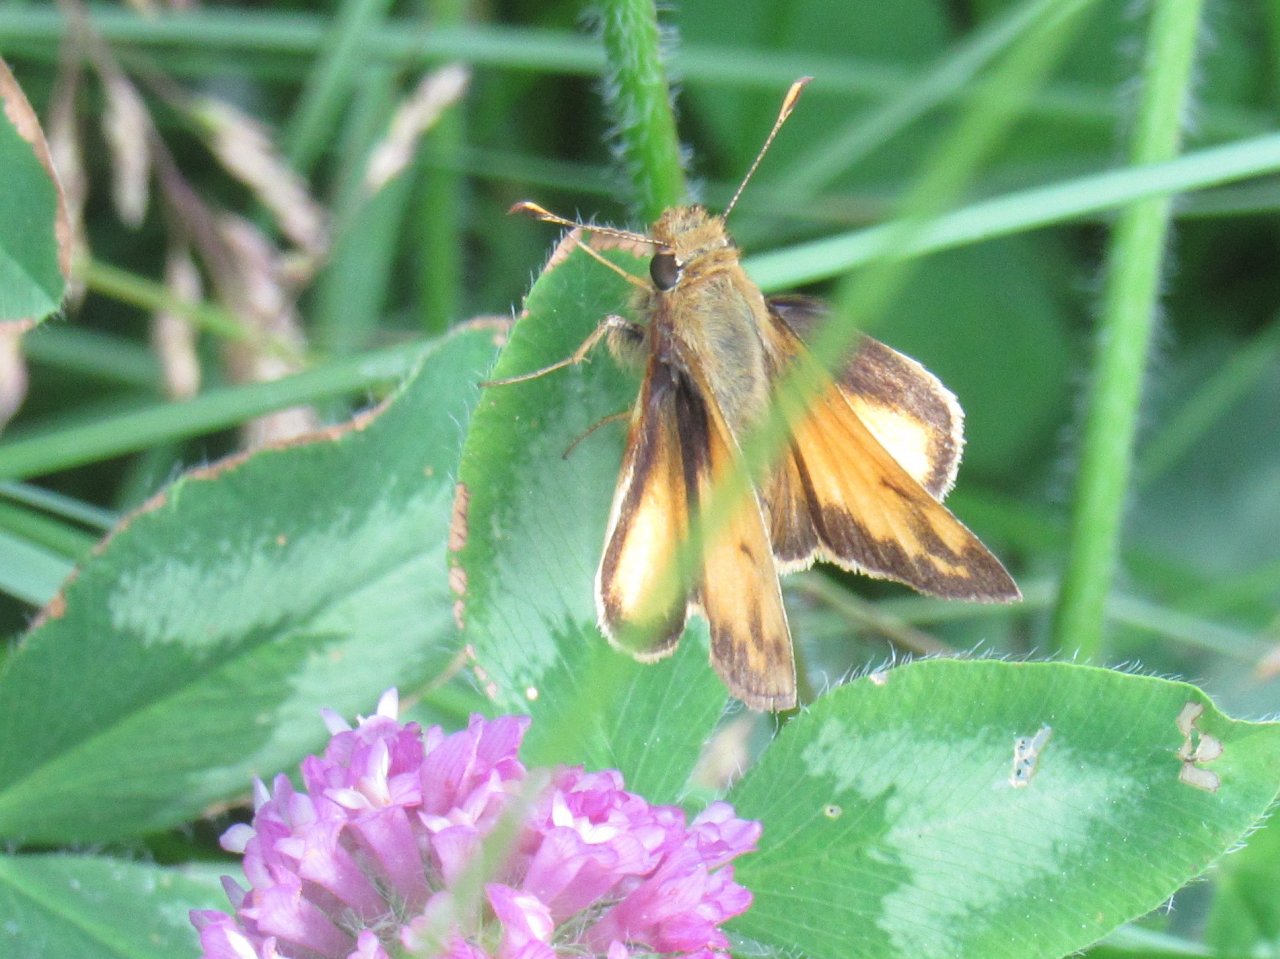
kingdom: Animalia
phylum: Arthropoda
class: Insecta
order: Lepidoptera
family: Hesperiidae
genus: Lon
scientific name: Lon zabulon
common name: Zabulon Skipper
